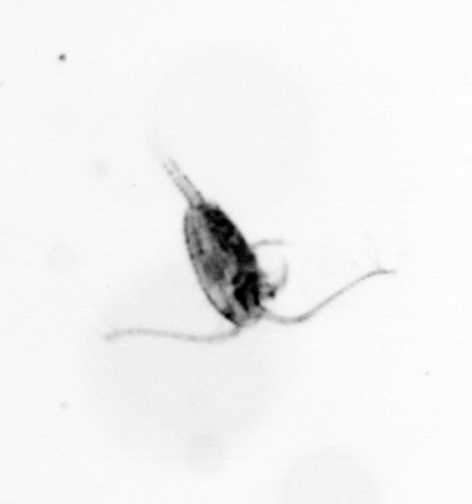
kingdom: Animalia
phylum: Arthropoda
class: Copepoda
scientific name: Copepoda
